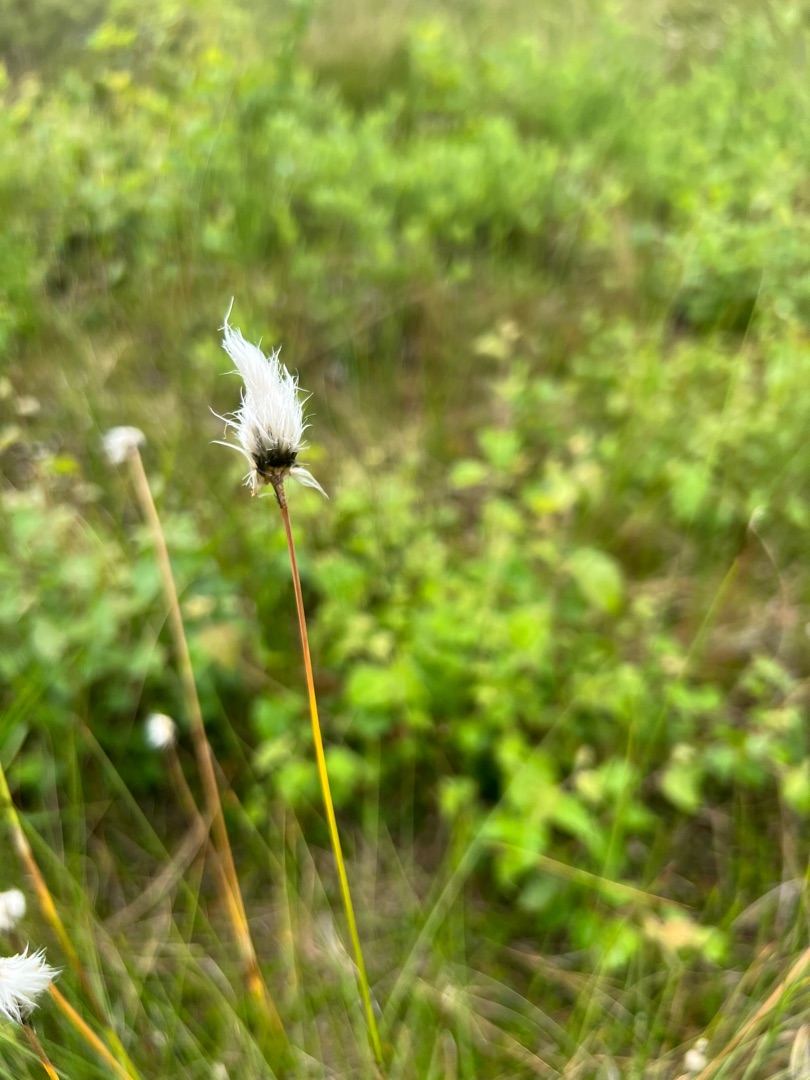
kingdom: Plantae
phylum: Tracheophyta
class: Liliopsida
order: Poales
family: Cyperaceae
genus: Eriophorum
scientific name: Eriophorum vaginatum
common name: Tue-kæruld
